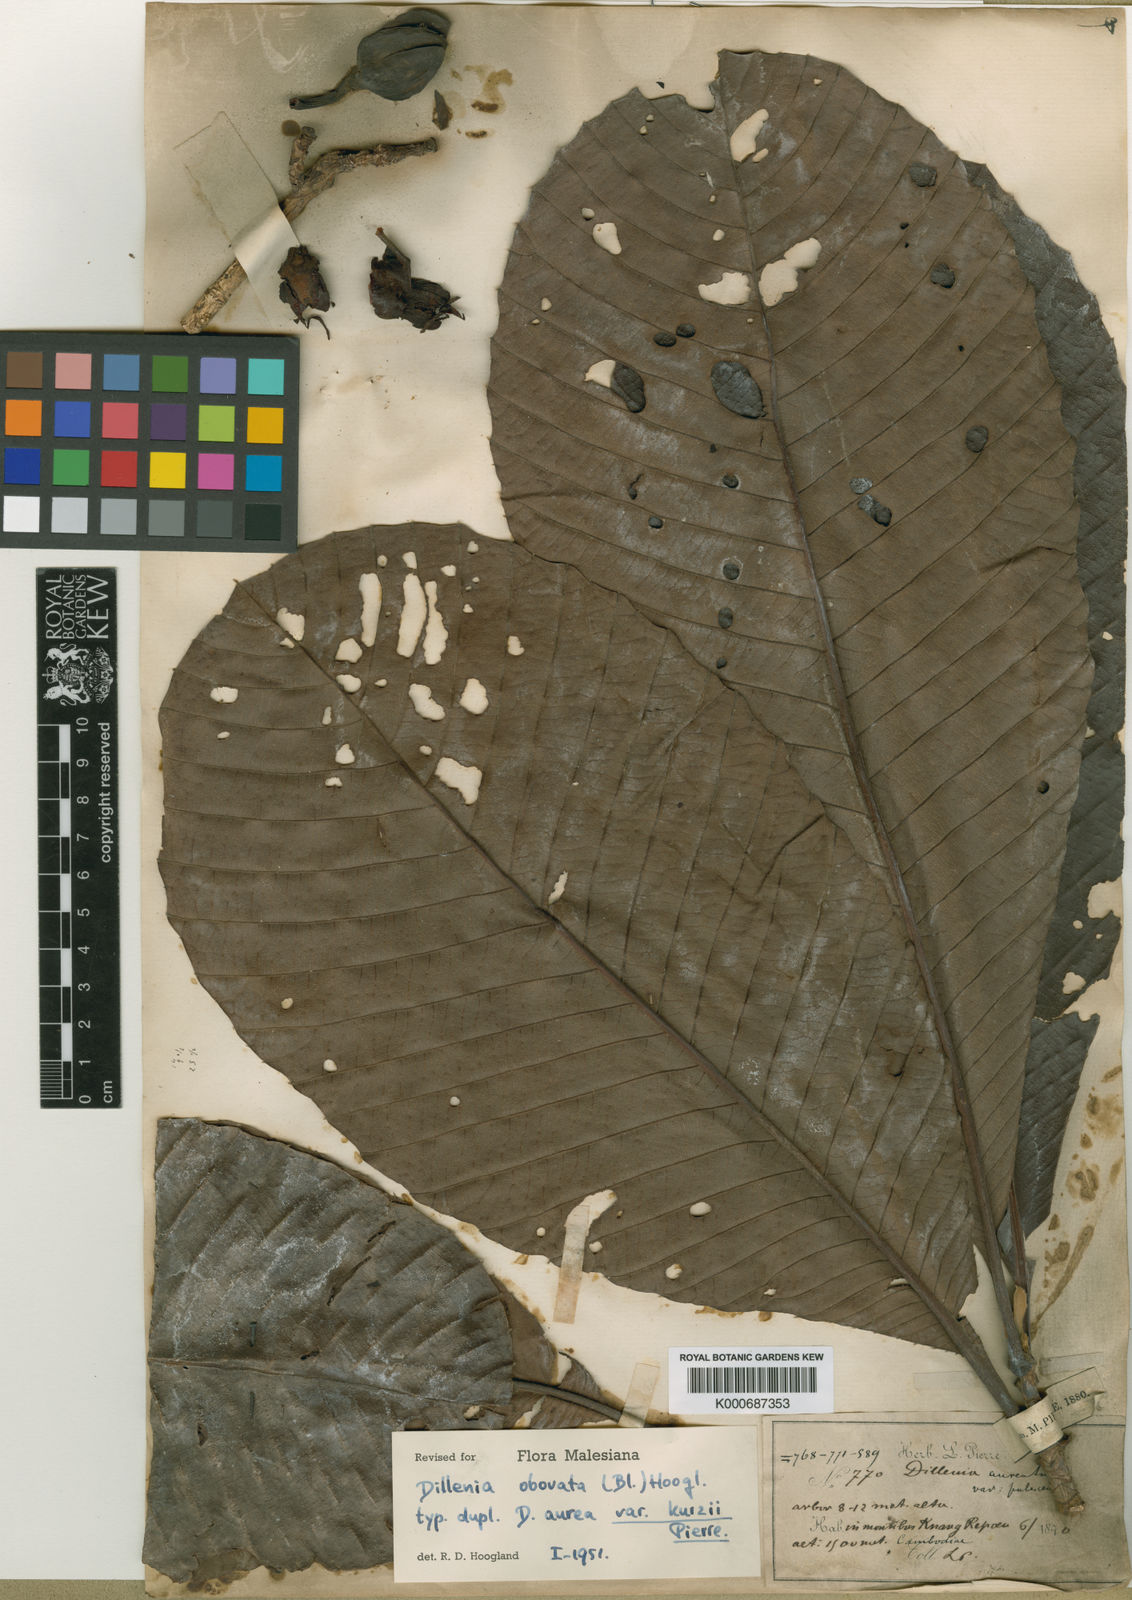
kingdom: Plantae
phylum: Tracheophyta
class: Magnoliopsida
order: Dilleniales
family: Dilleniaceae
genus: Dillenia
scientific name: Dillenia obovata
